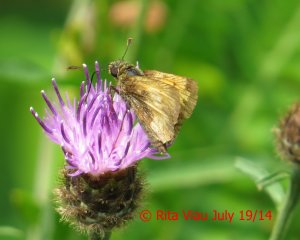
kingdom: Animalia
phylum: Arthropoda
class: Insecta
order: Lepidoptera
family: Hesperiidae
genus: Lon
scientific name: Lon hobomok
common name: Hobomok Skipper
